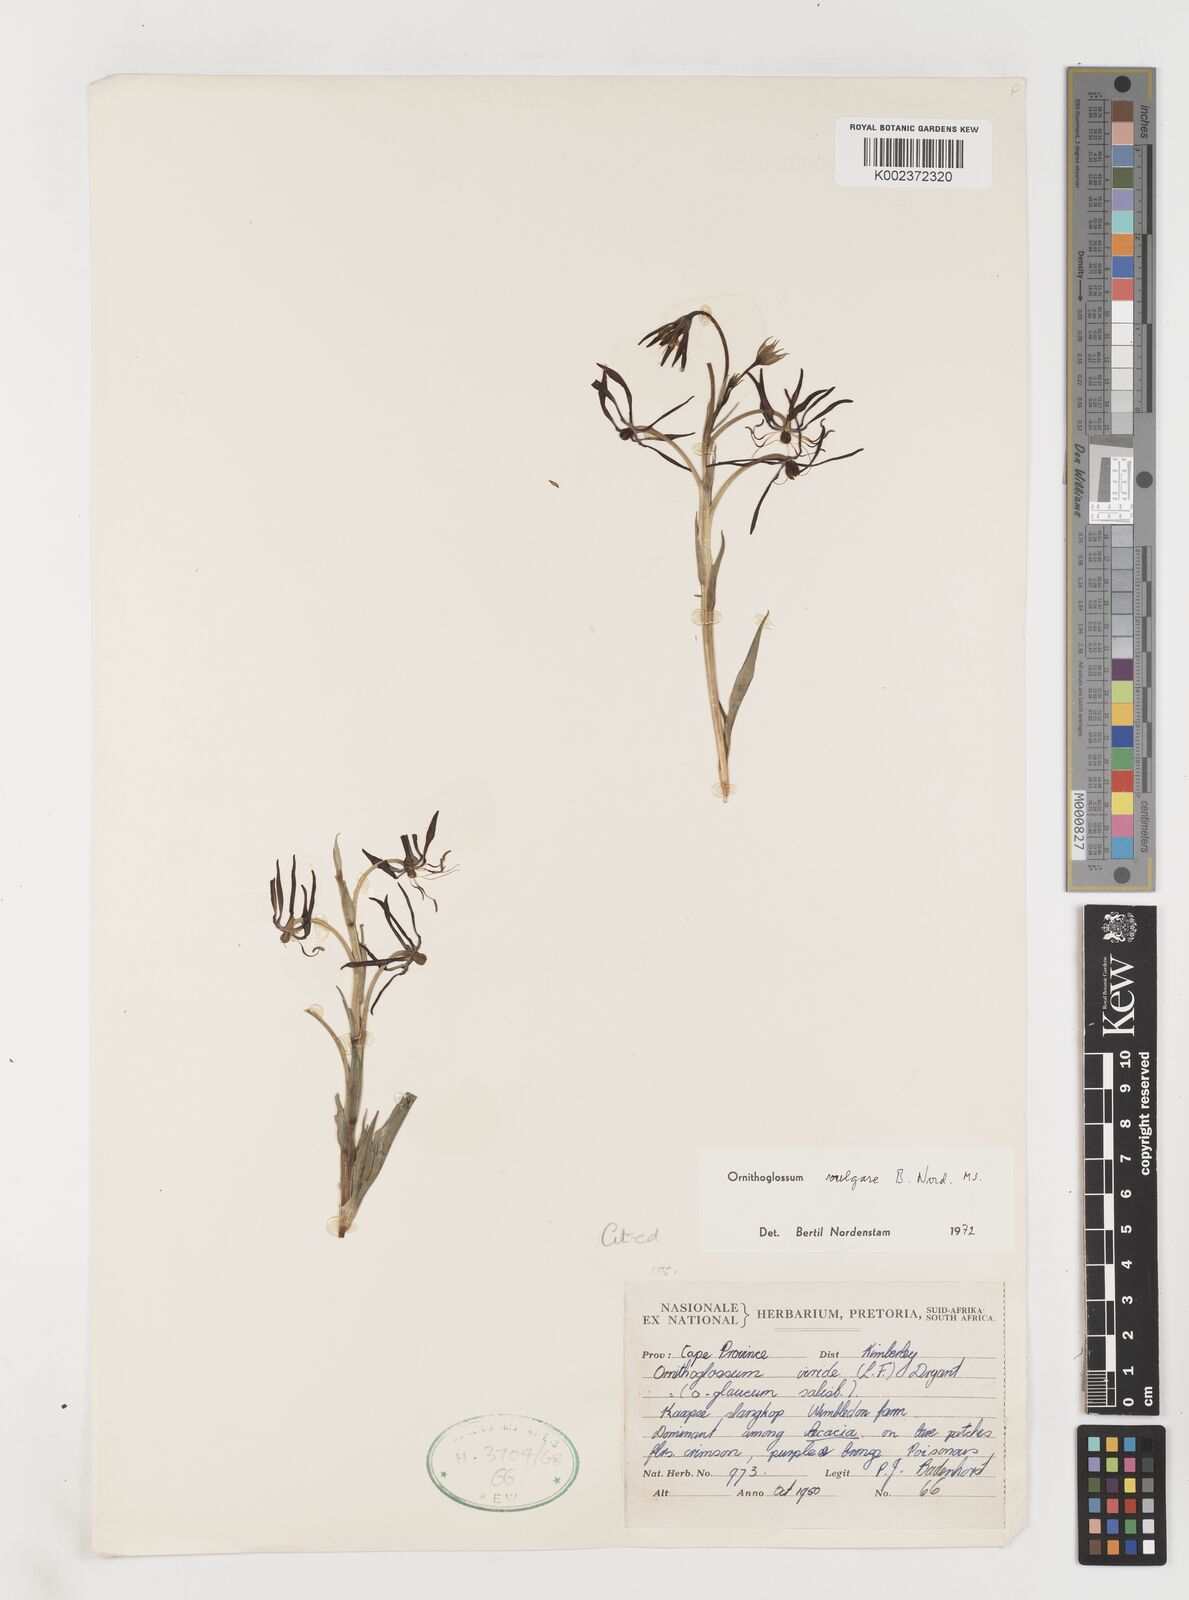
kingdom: Plantae
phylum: Tracheophyta
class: Liliopsida
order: Liliales
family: Colchicaceae
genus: Ornithoglossum
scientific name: Ornithoglossum vulgare
